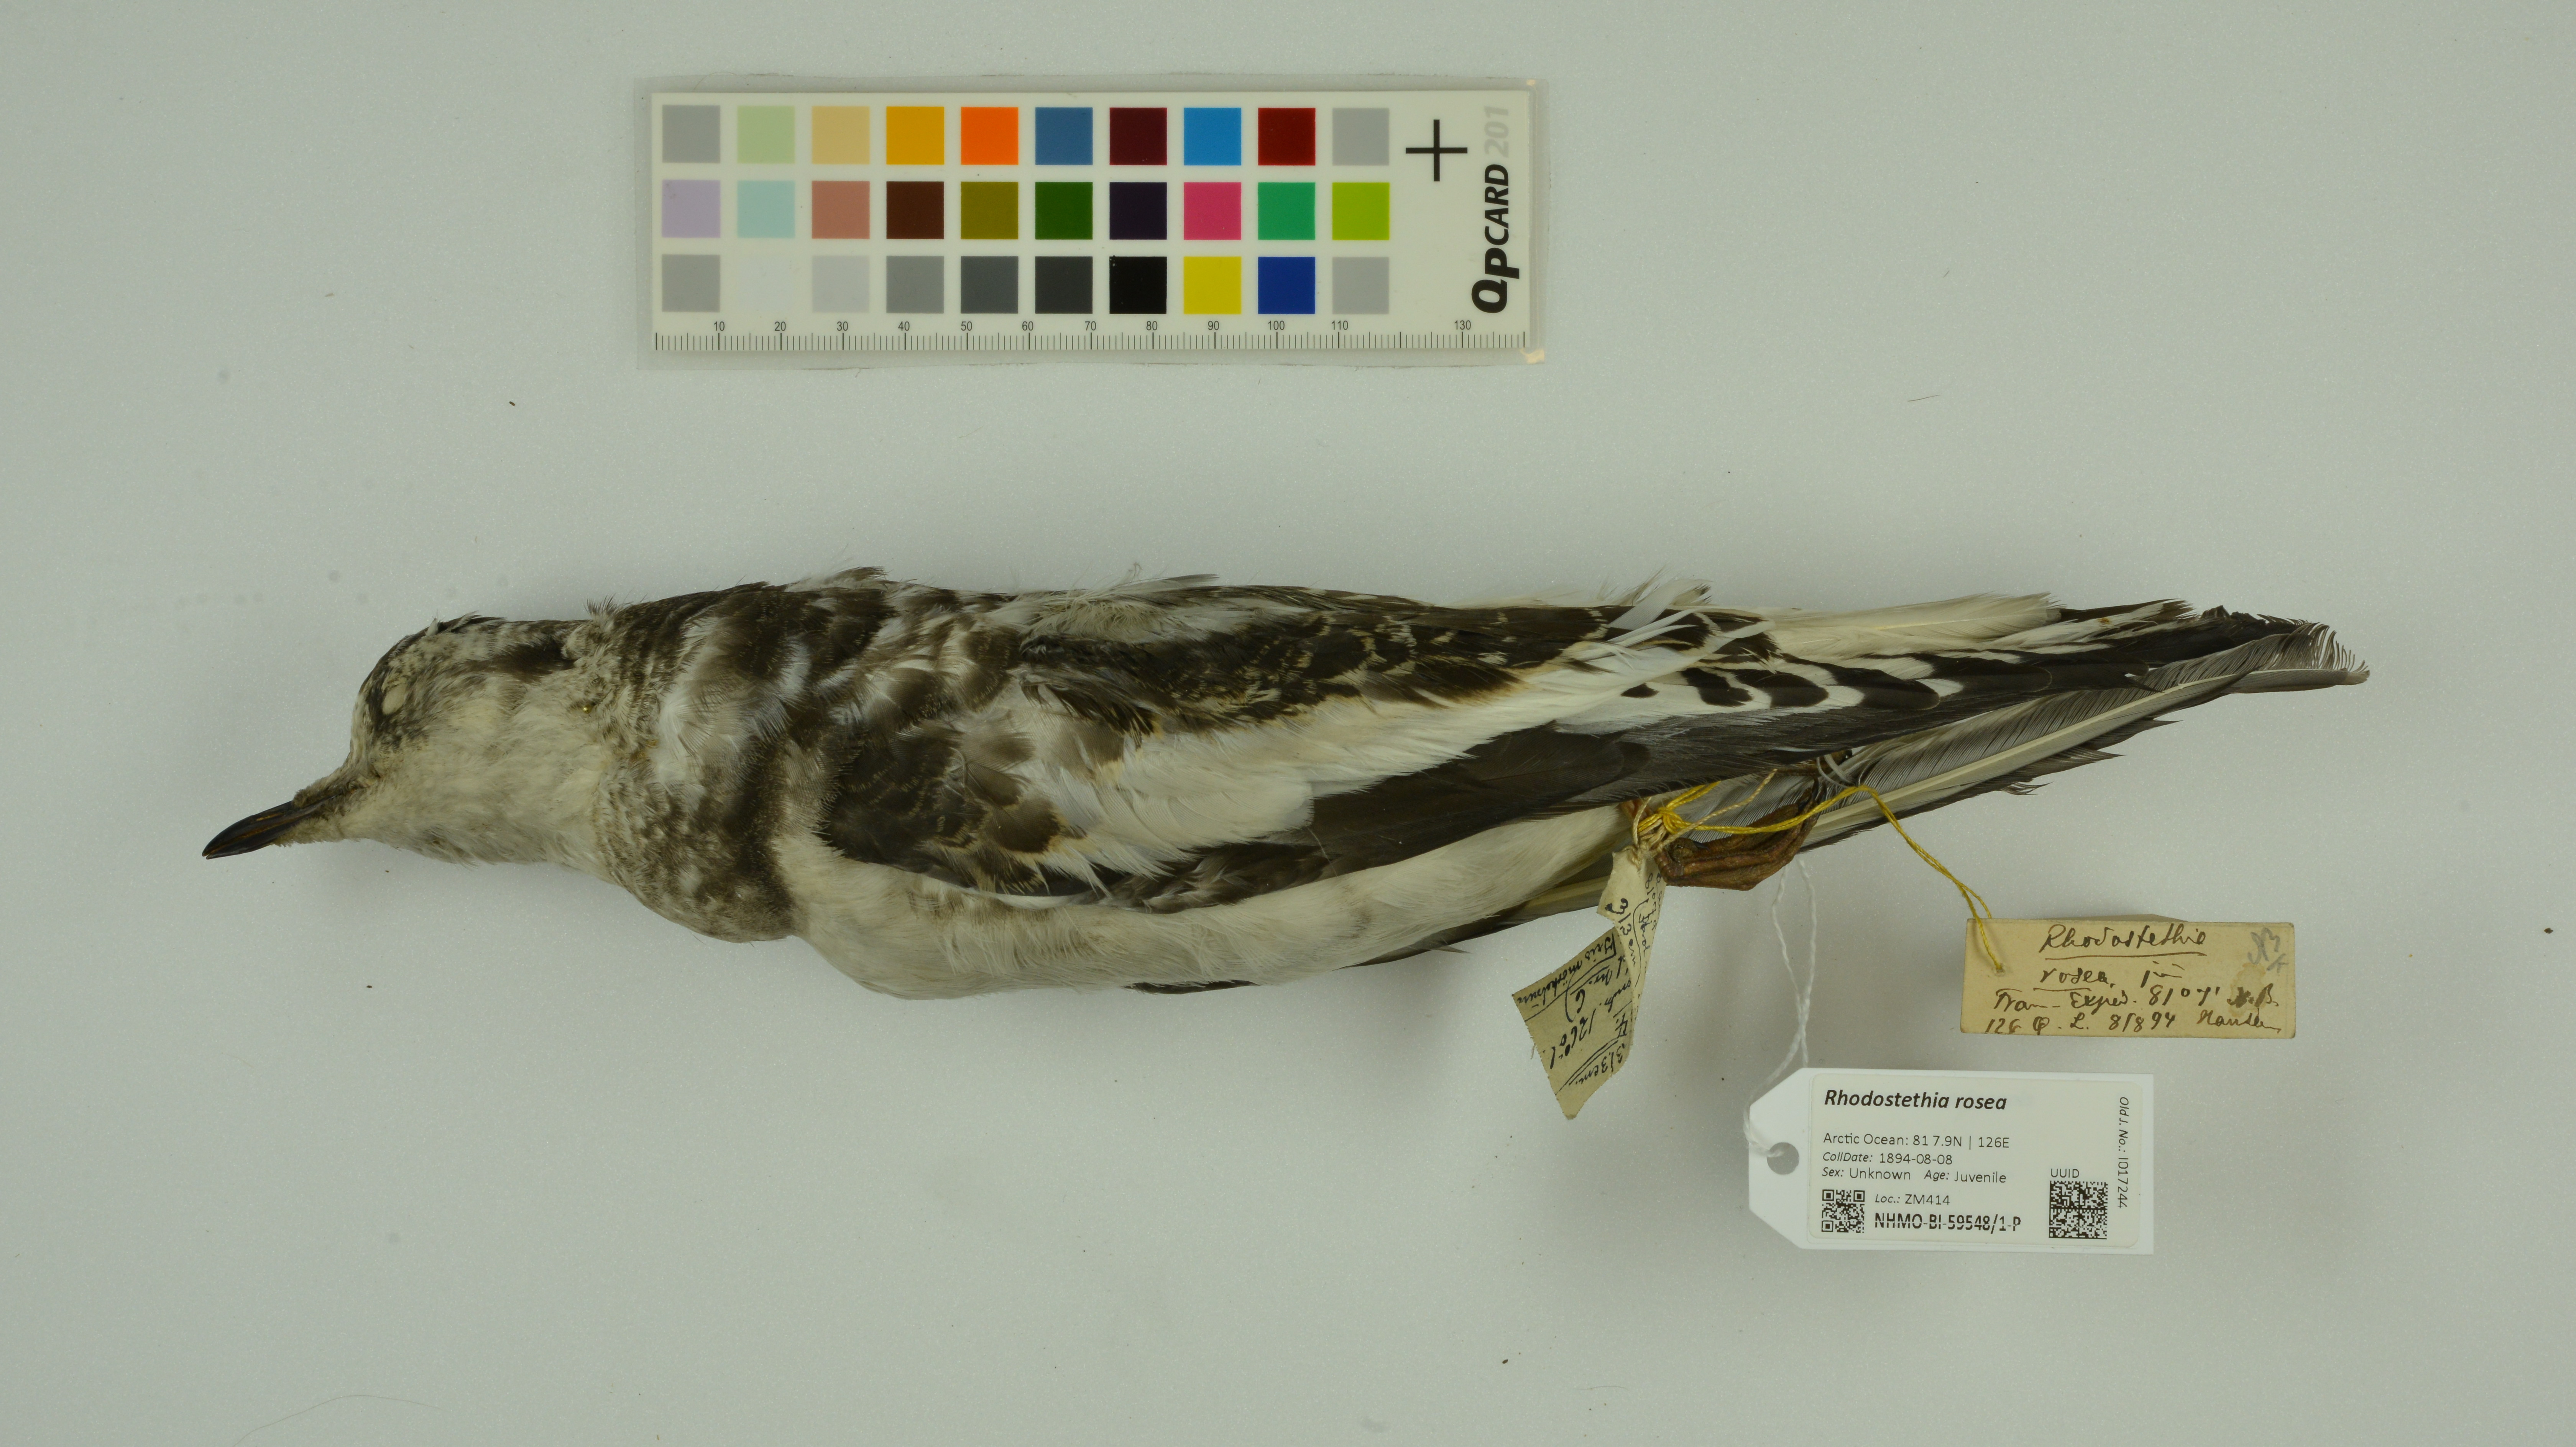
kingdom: Animalia
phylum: Chordata
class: Aves
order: Charadriiformes
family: Laridae
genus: Rhodostethia
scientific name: Rhodostethia rosea
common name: Ross's gull
